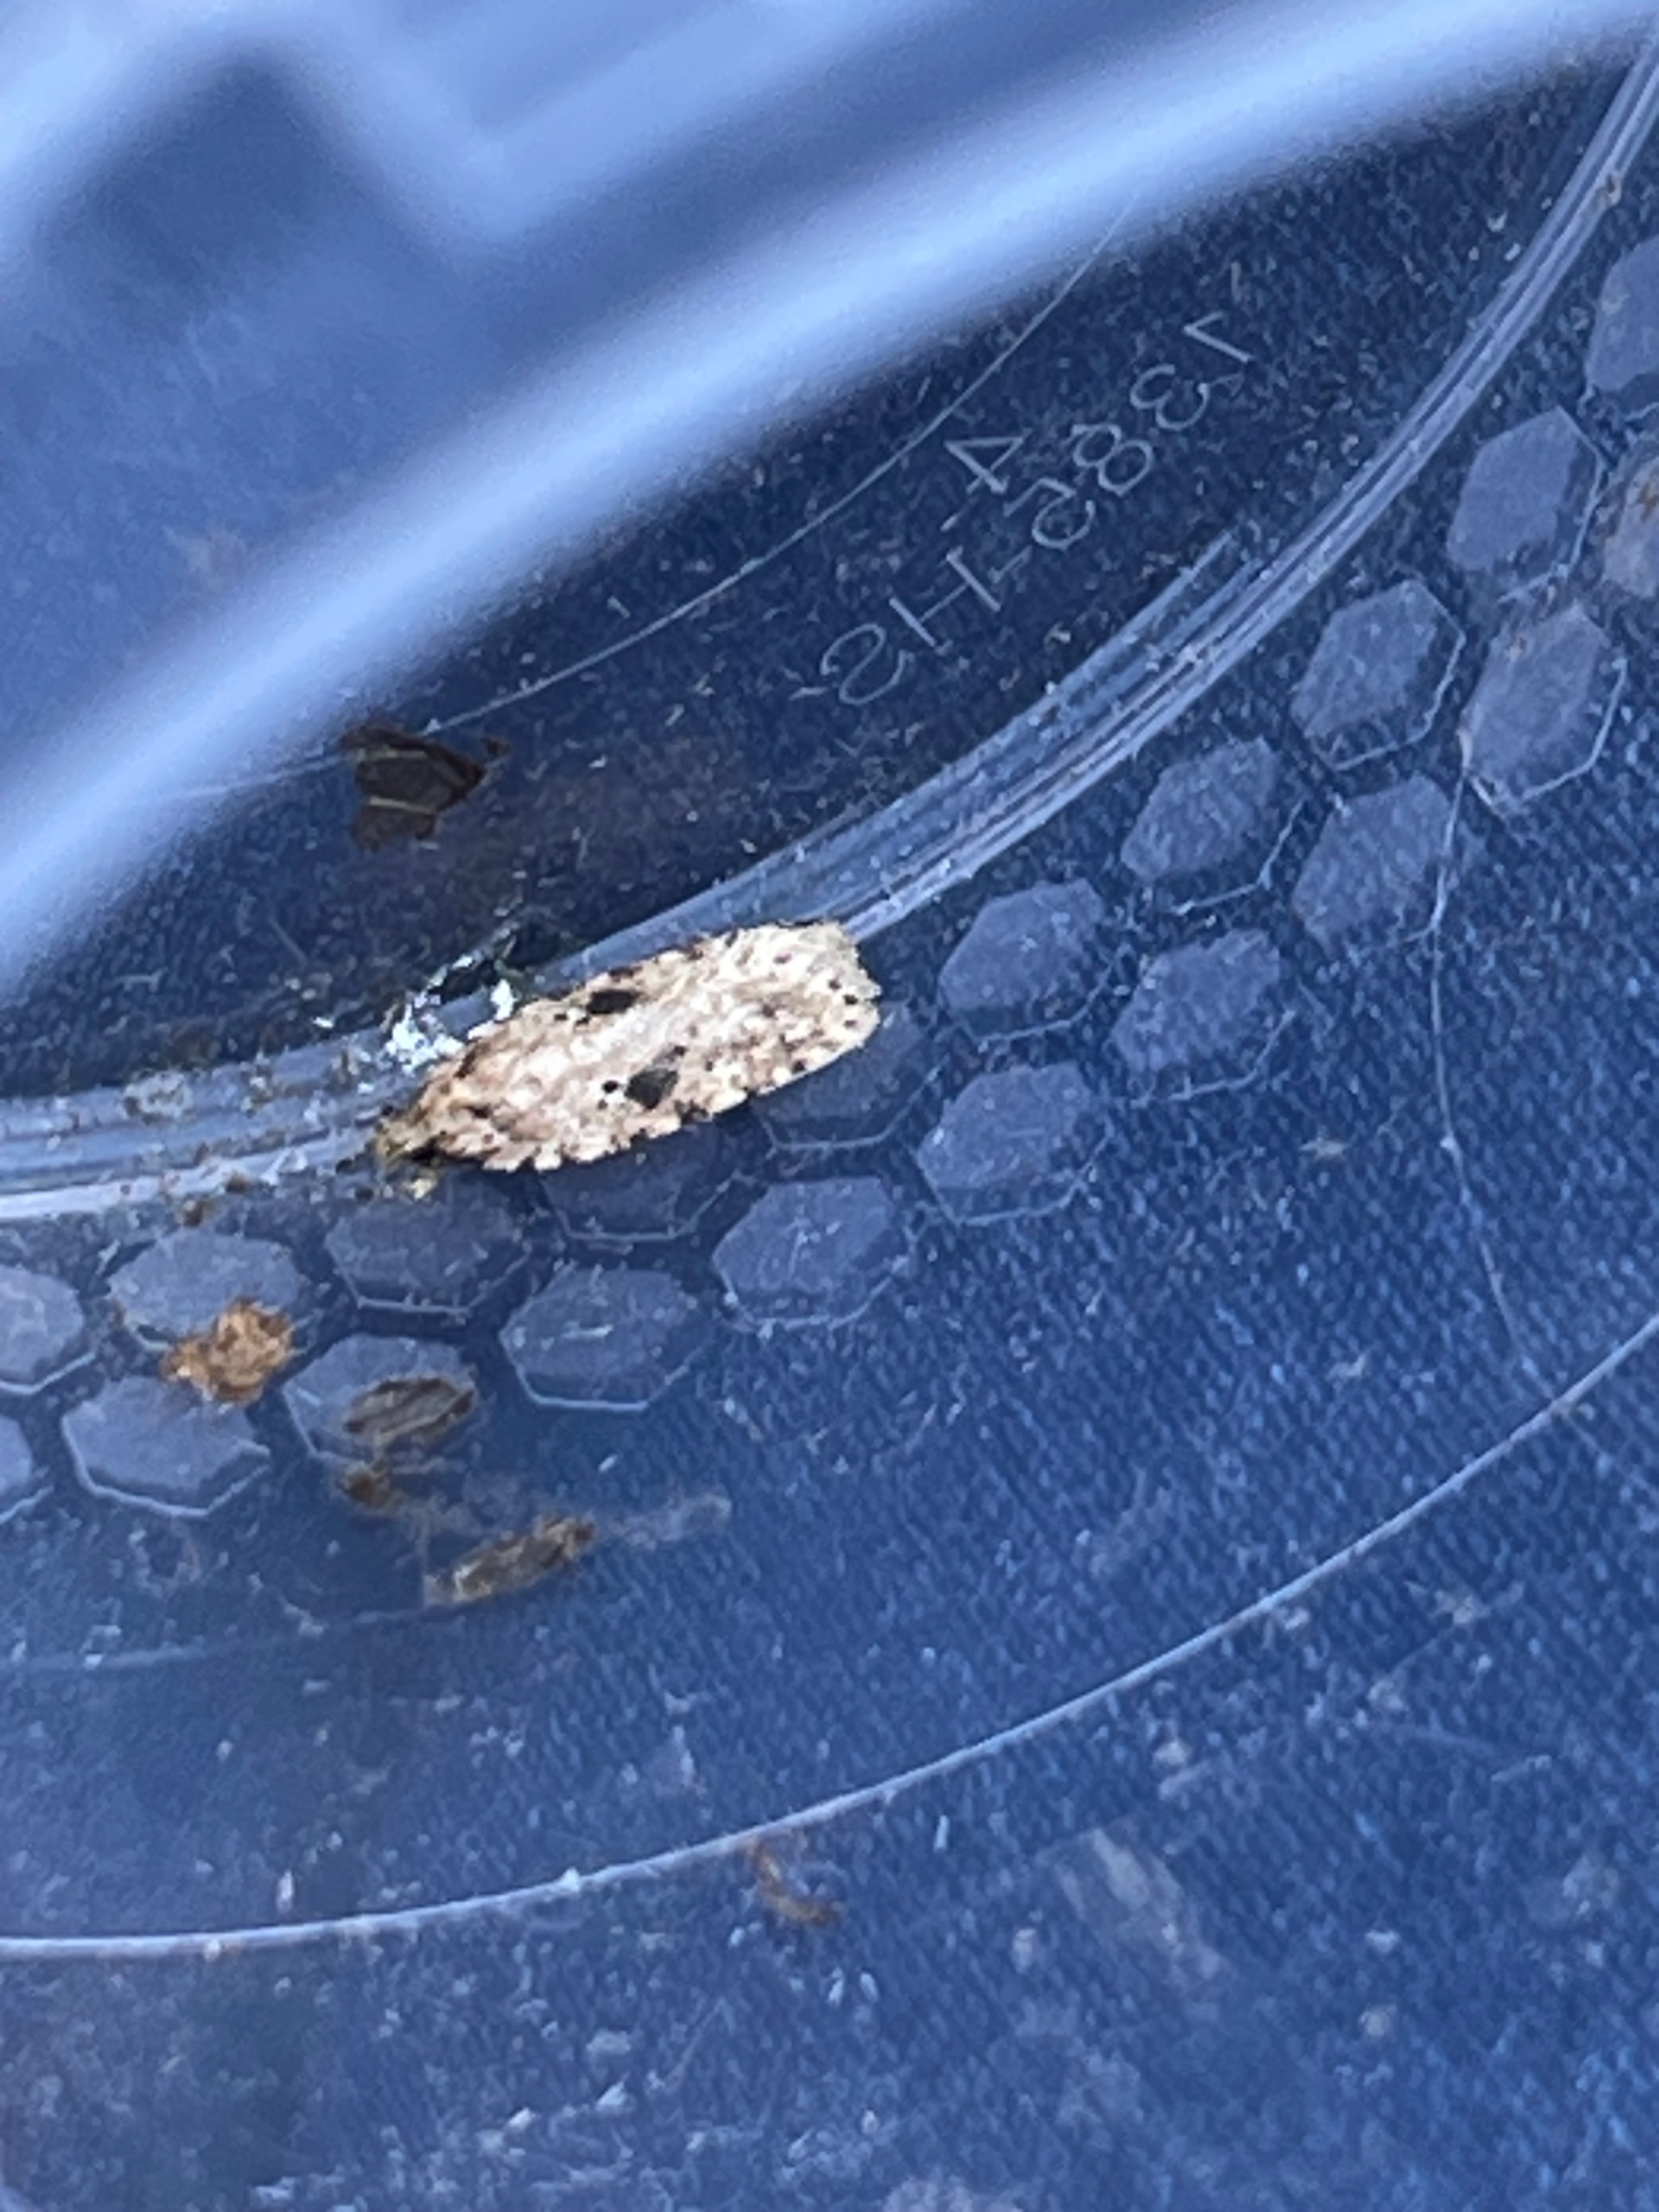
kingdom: Animalia
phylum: Arthropoda
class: Insecta
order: Lepidoptera
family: Depressariidae
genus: Agonopterix
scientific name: Agonopterix arenella
